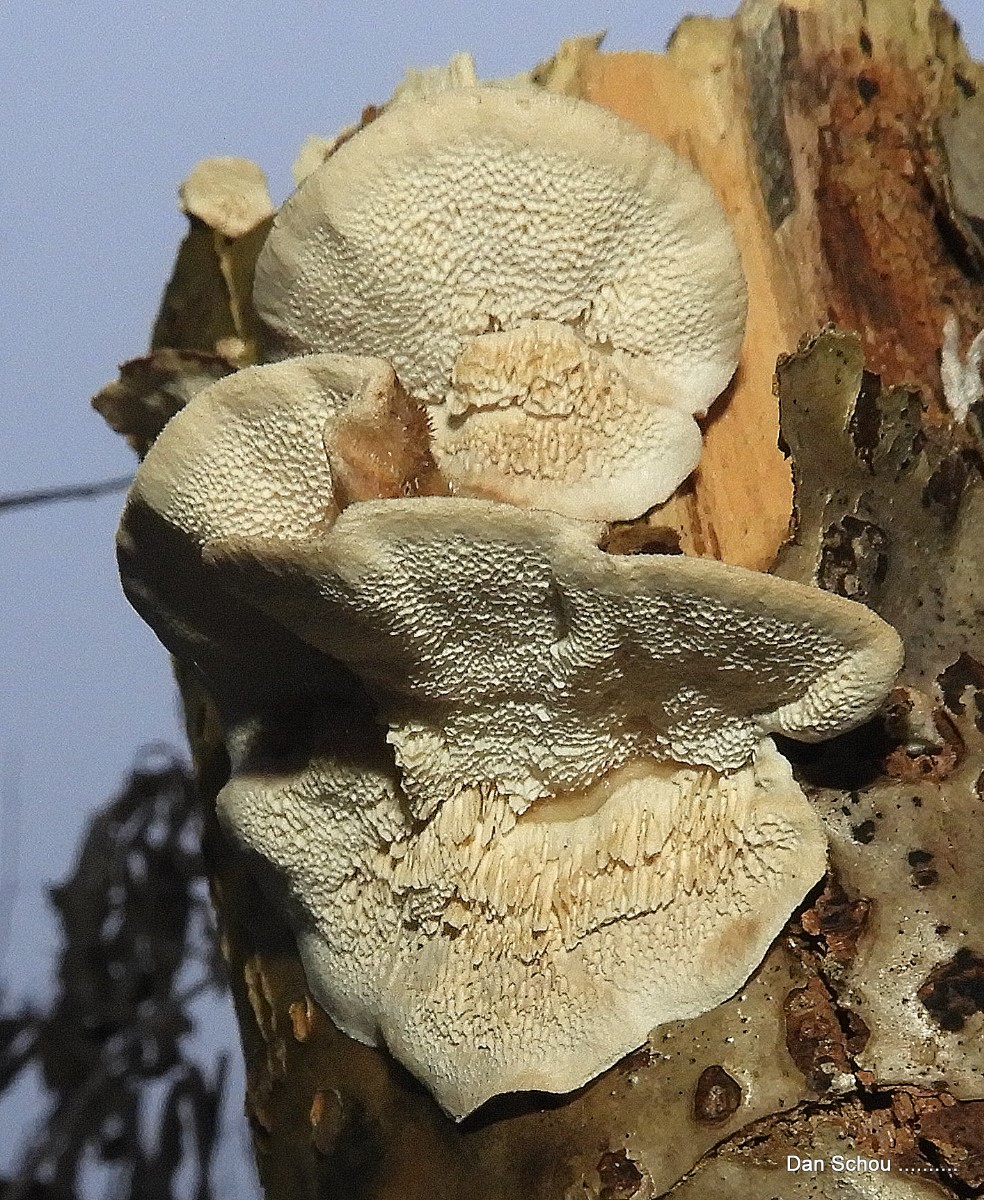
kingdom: Fungi
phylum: Basidiomycota
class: Agaricomycetes
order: Polyporales
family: Polyporaceae
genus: Daedaleopsis
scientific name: Daedaleopsis confragosa
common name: rødmende læderporesvamp
